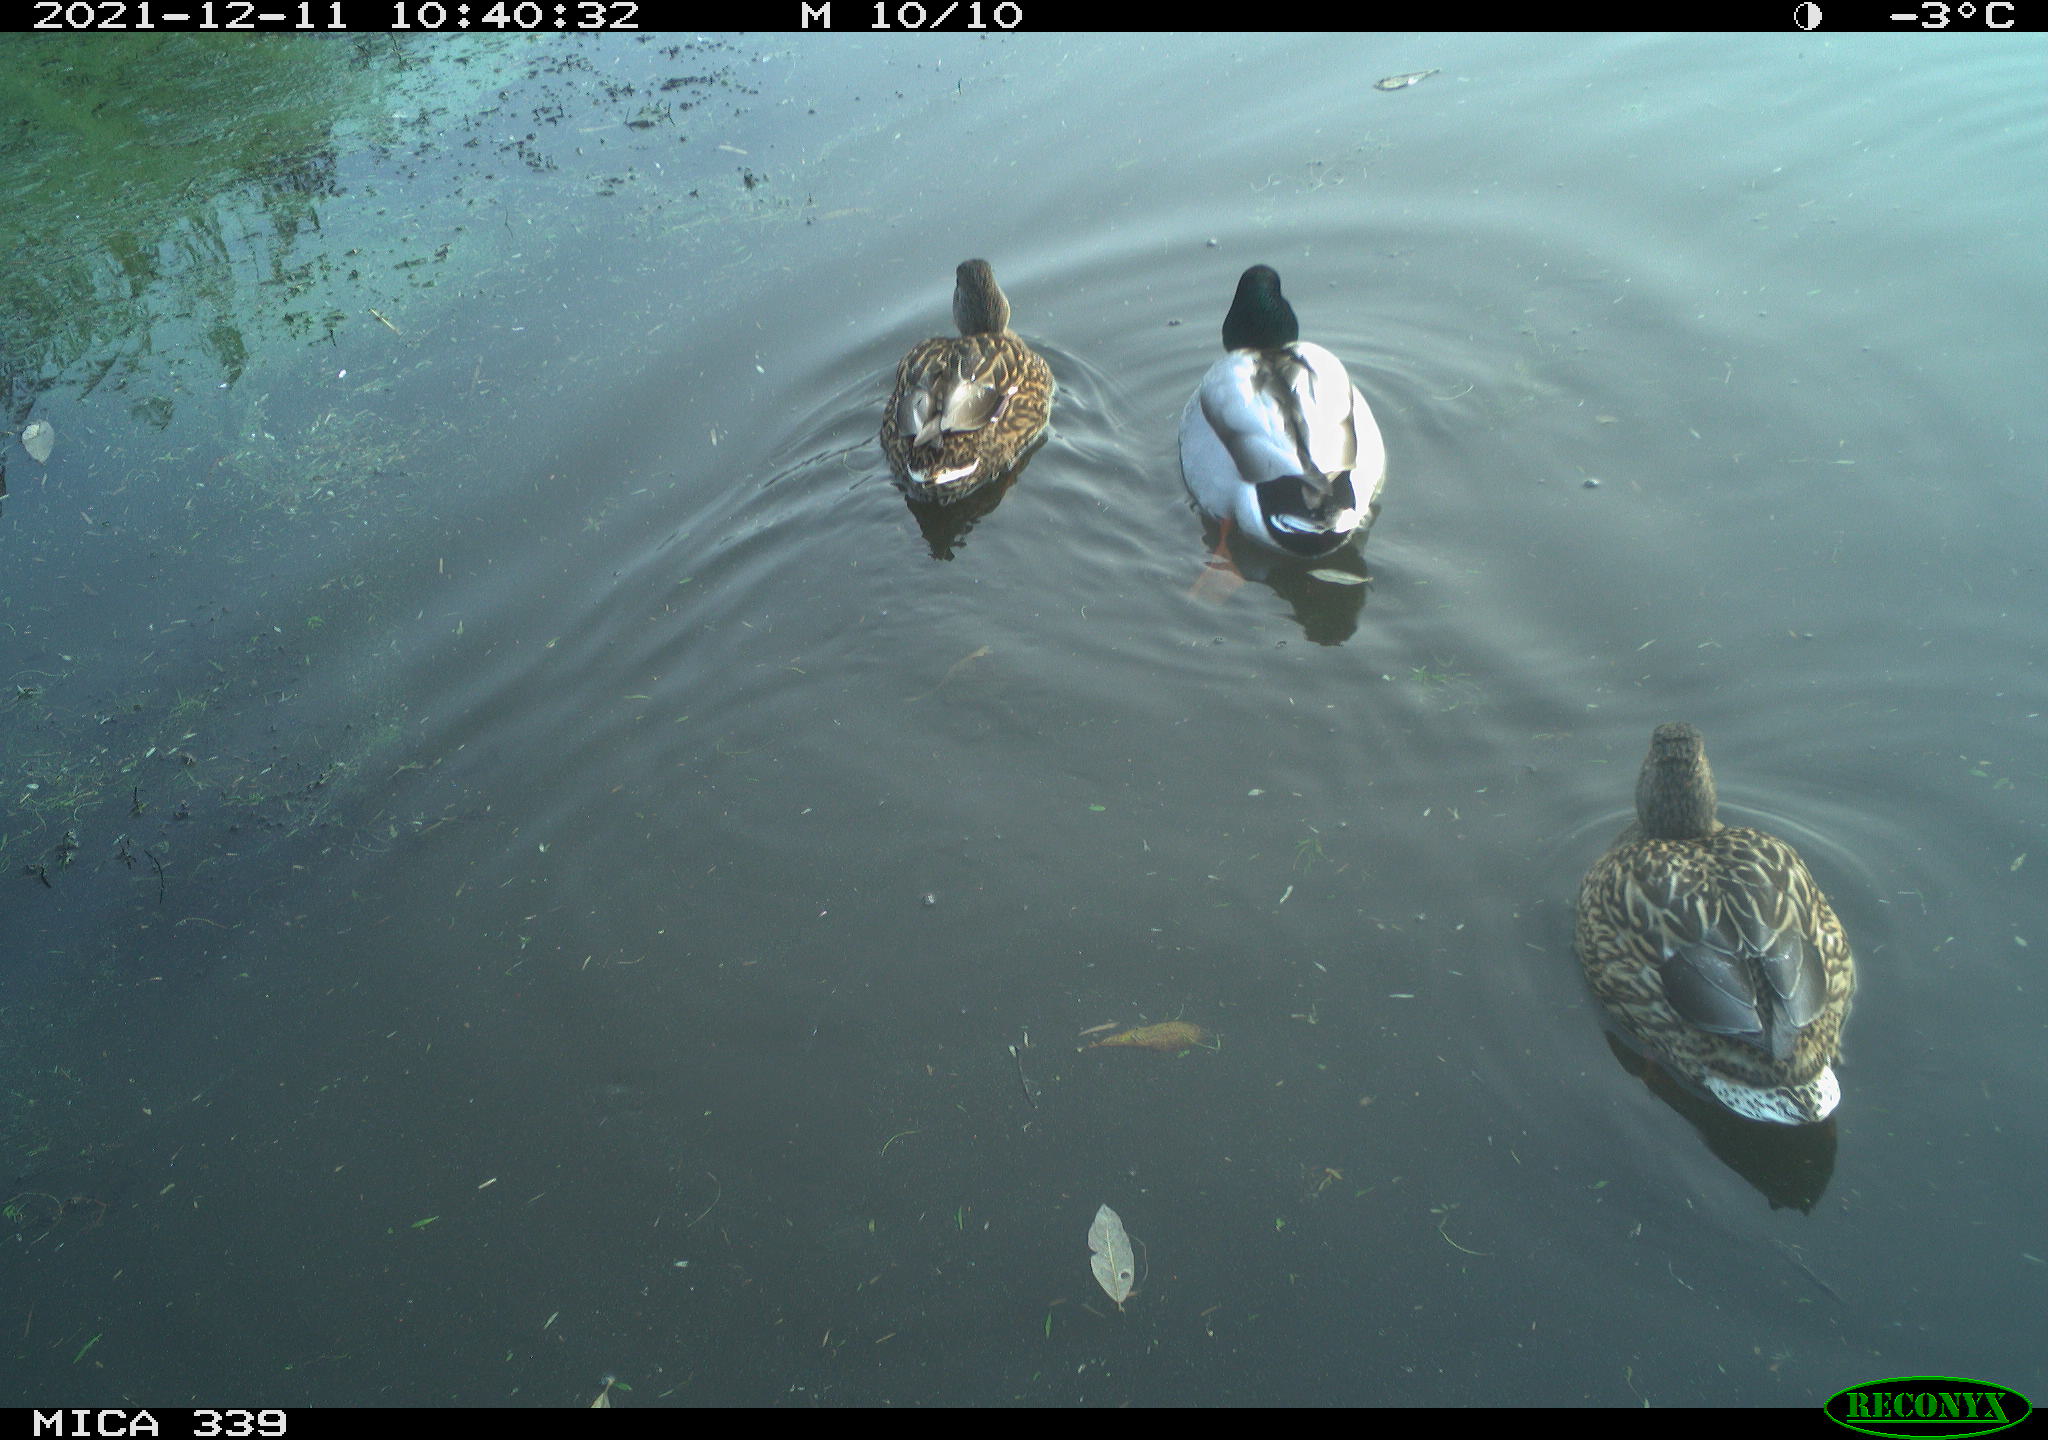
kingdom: Animalia
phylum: Chordata
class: Aves
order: Anseriformes
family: Anatidae
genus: Anas
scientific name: Anas platyrhynchos
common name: Mallard
